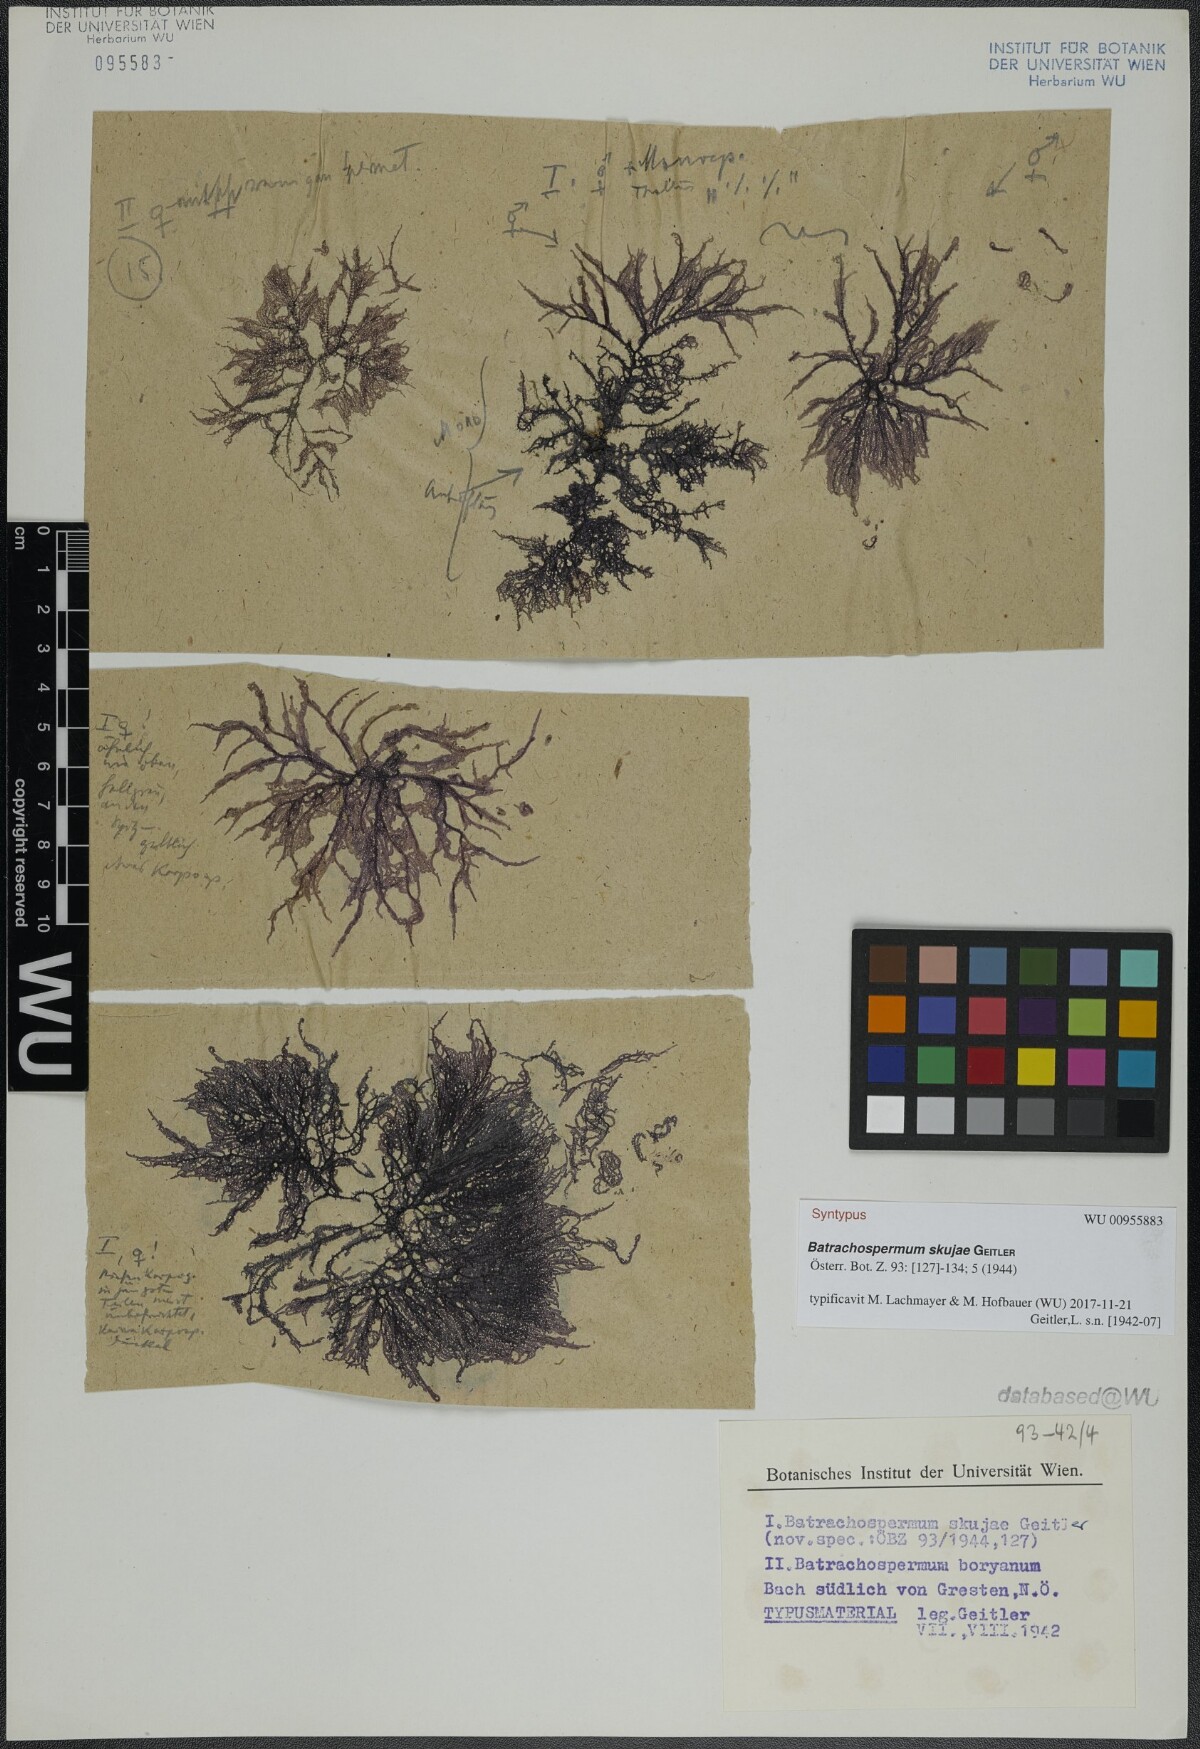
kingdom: Plantae
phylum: Rhodophyta
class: Florideophyceae
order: Batrachospermales
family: Batrachospermaceae
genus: Batrachospermum
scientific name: Batrachospermum gelatinosum
